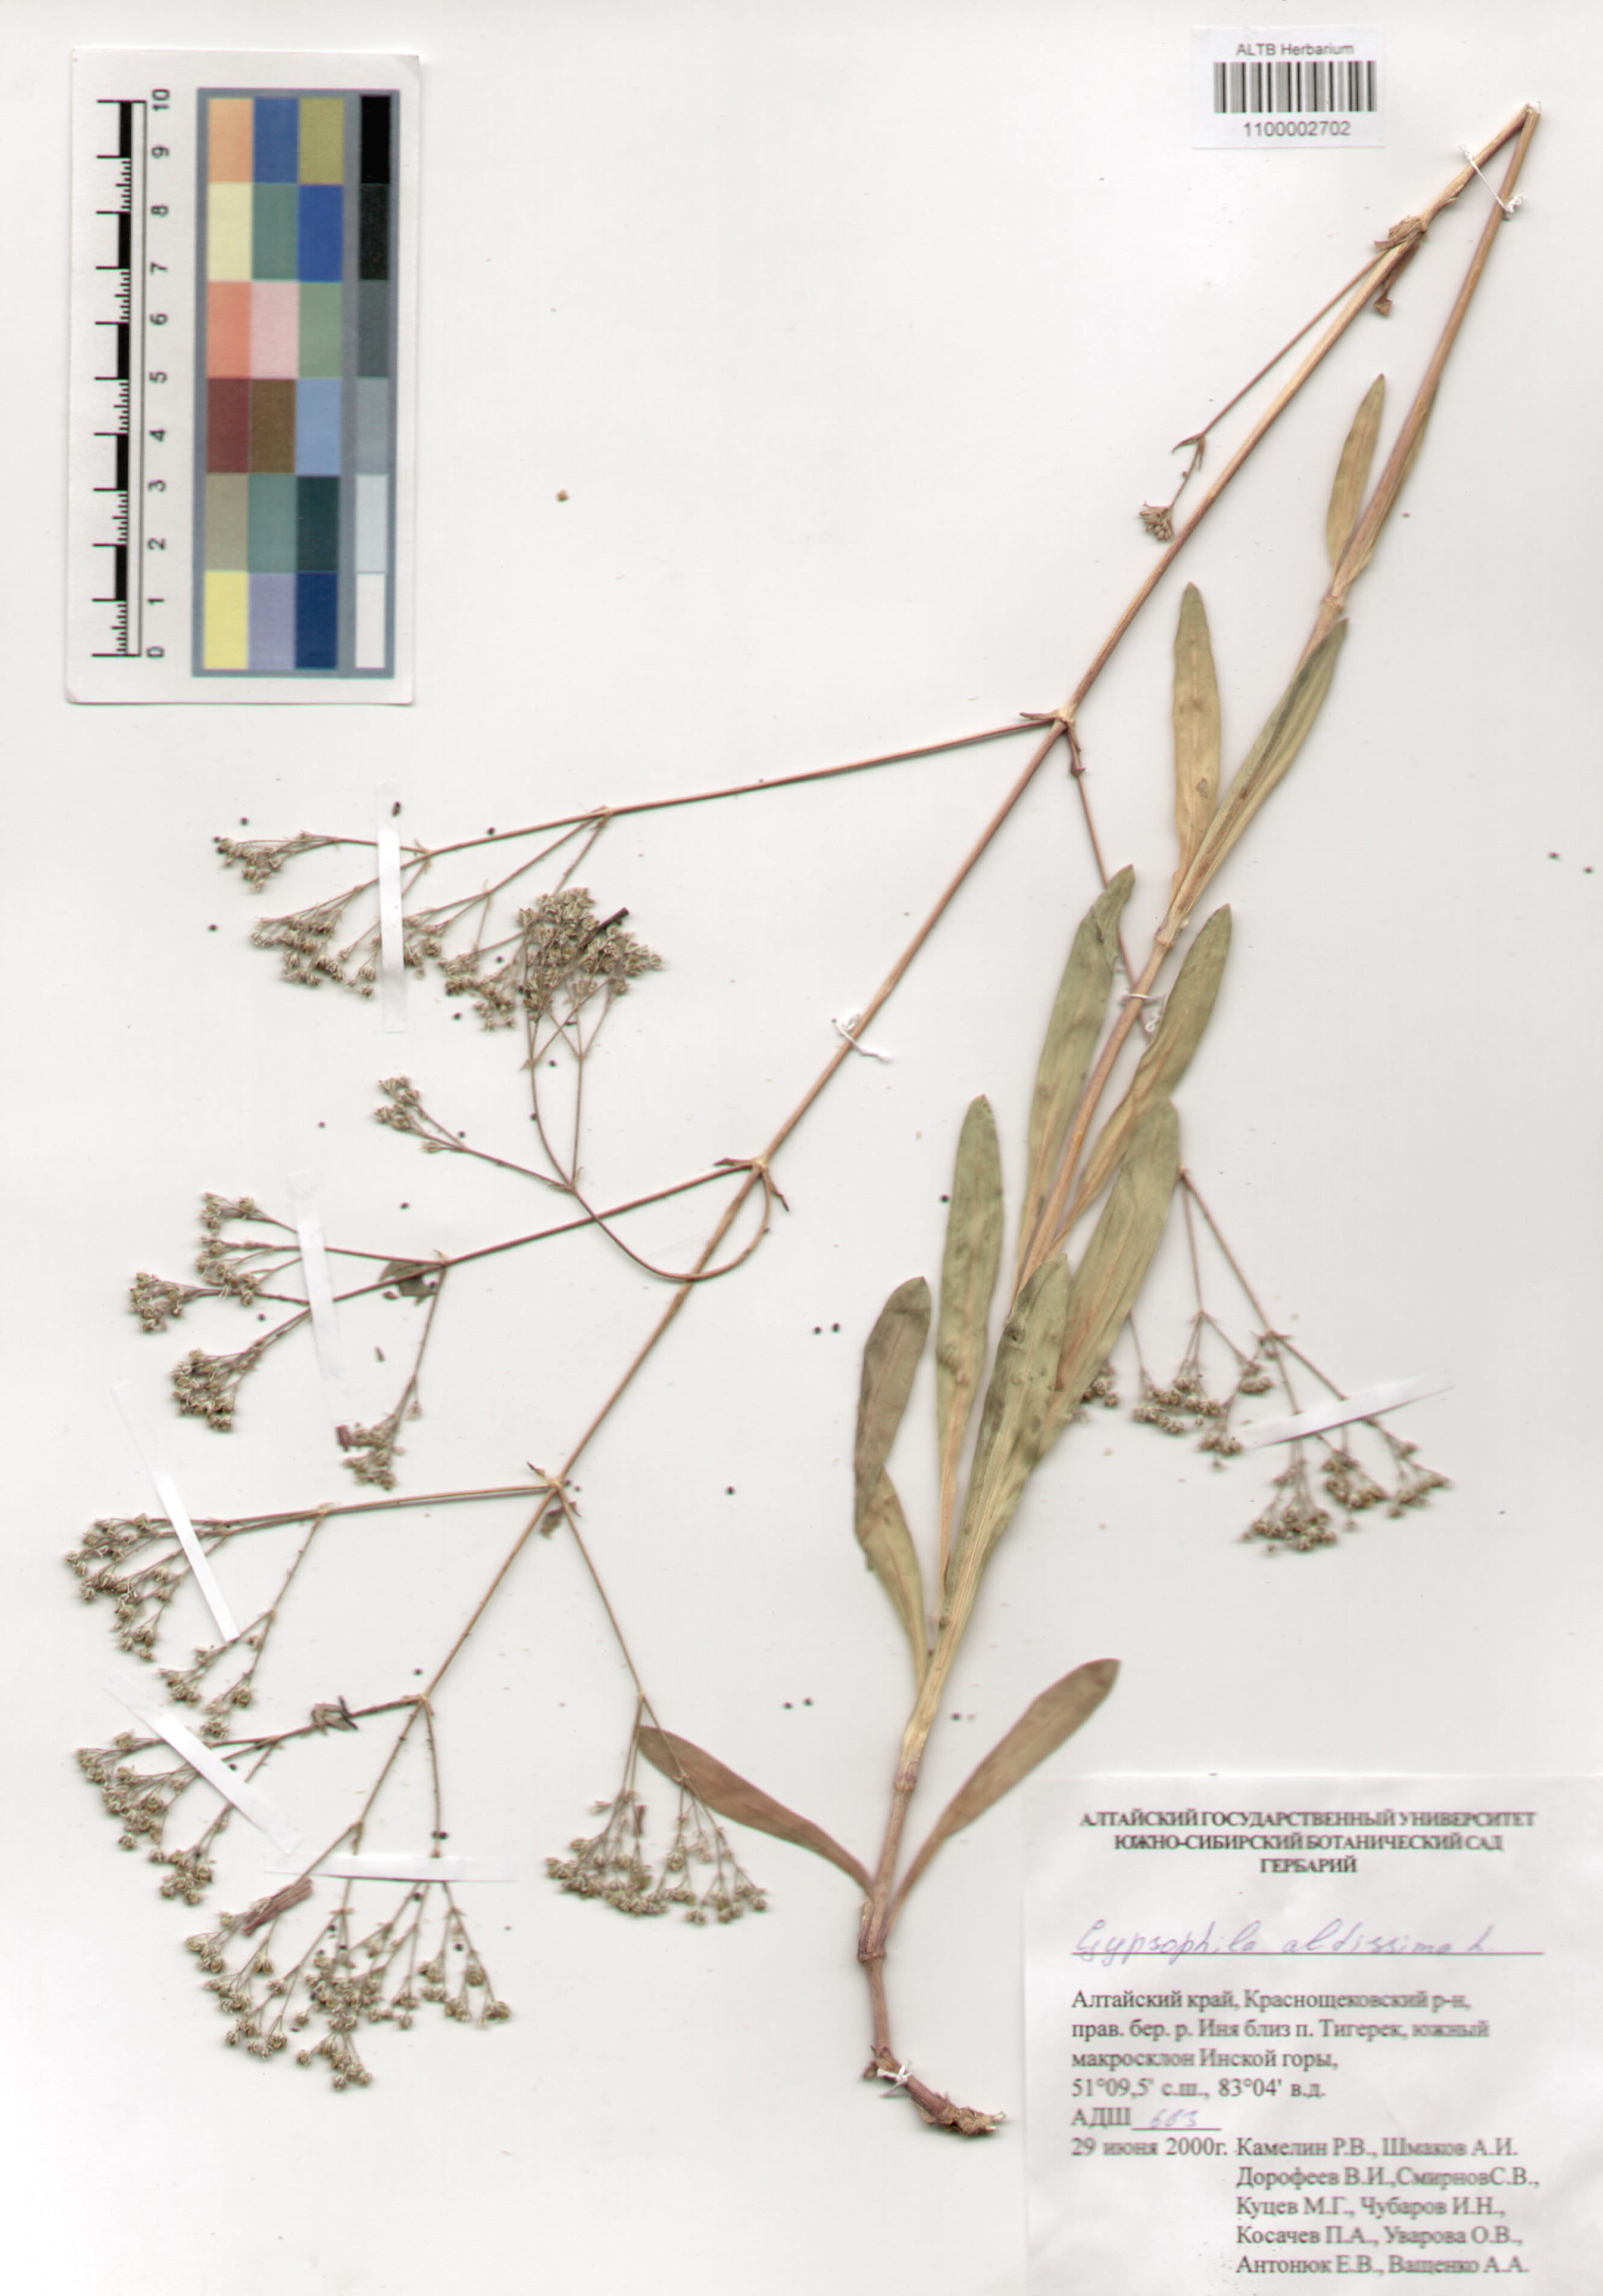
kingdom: Plantae
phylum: Tracheophyta
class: Magnoliopsida
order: Caryophyllales
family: Caryophyllaceae
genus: Gypsophila
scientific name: Gypsophila altissima
